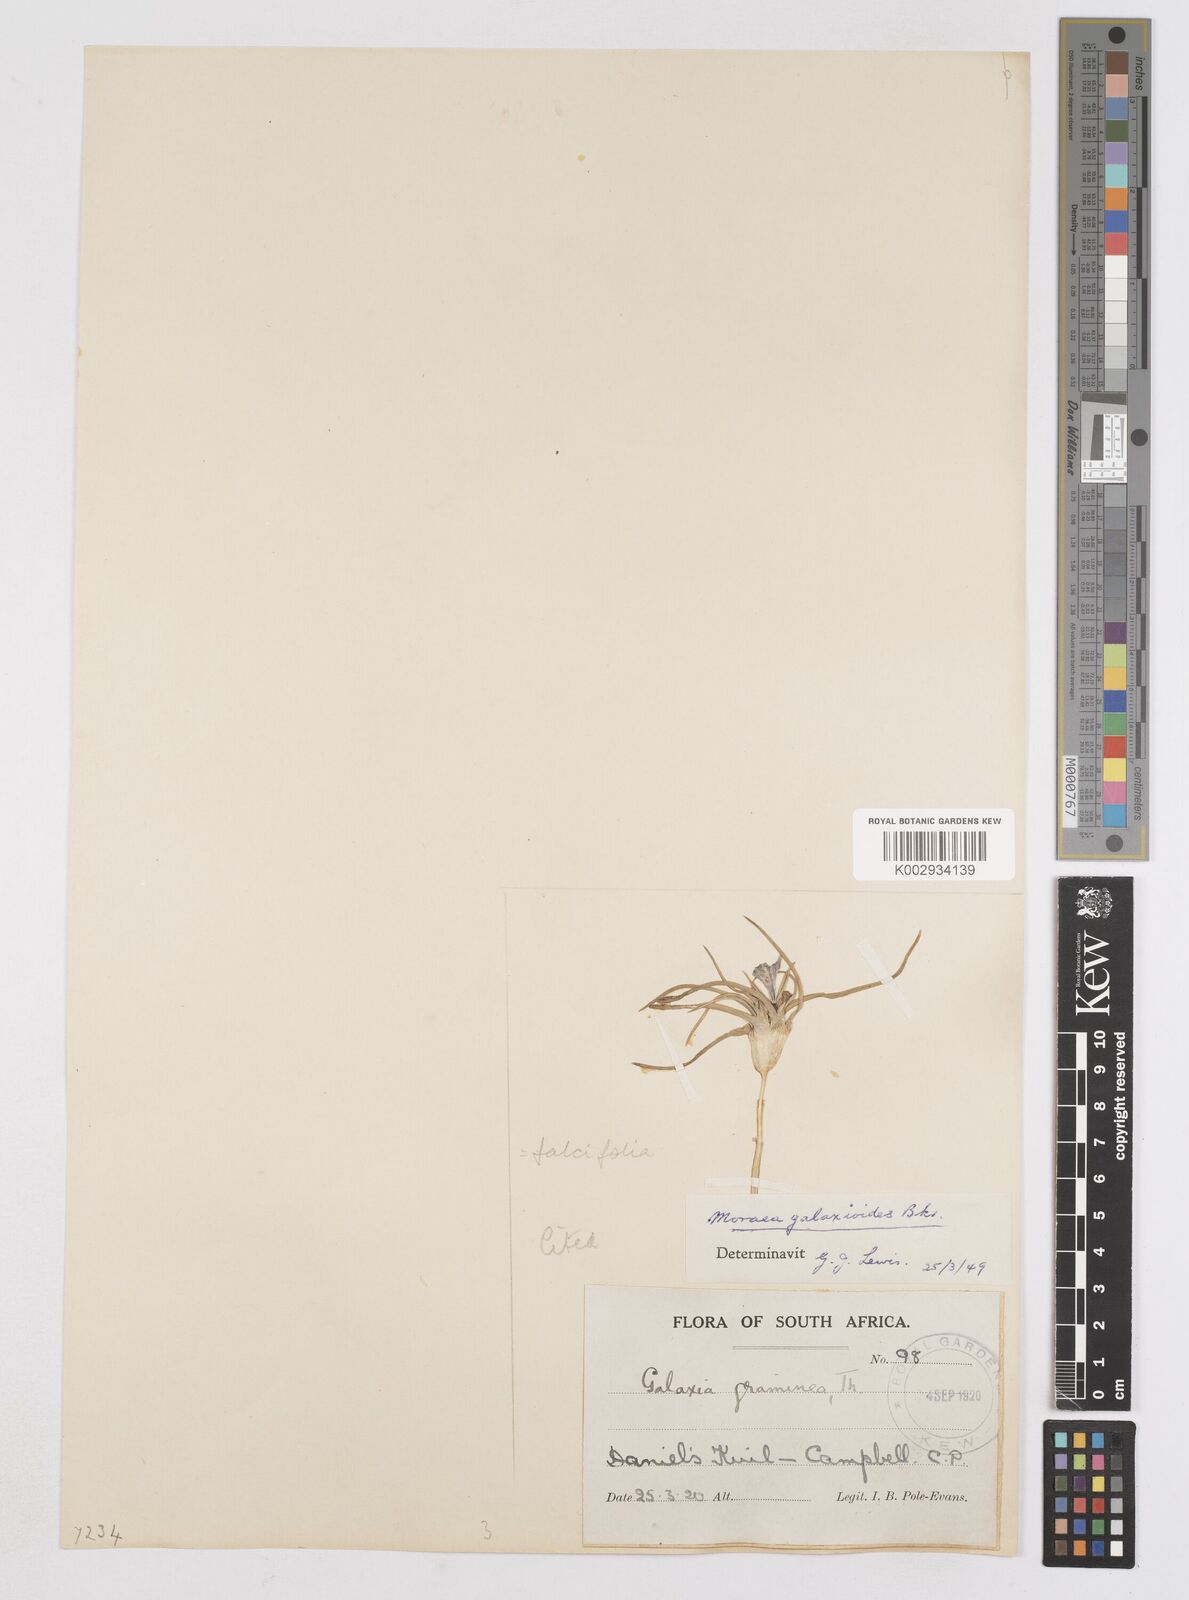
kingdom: Plantae
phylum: Tracheophyta
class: Liliopsida
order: Asparagales
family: Iridaceae
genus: Moraea
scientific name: Moraea falcifolia
